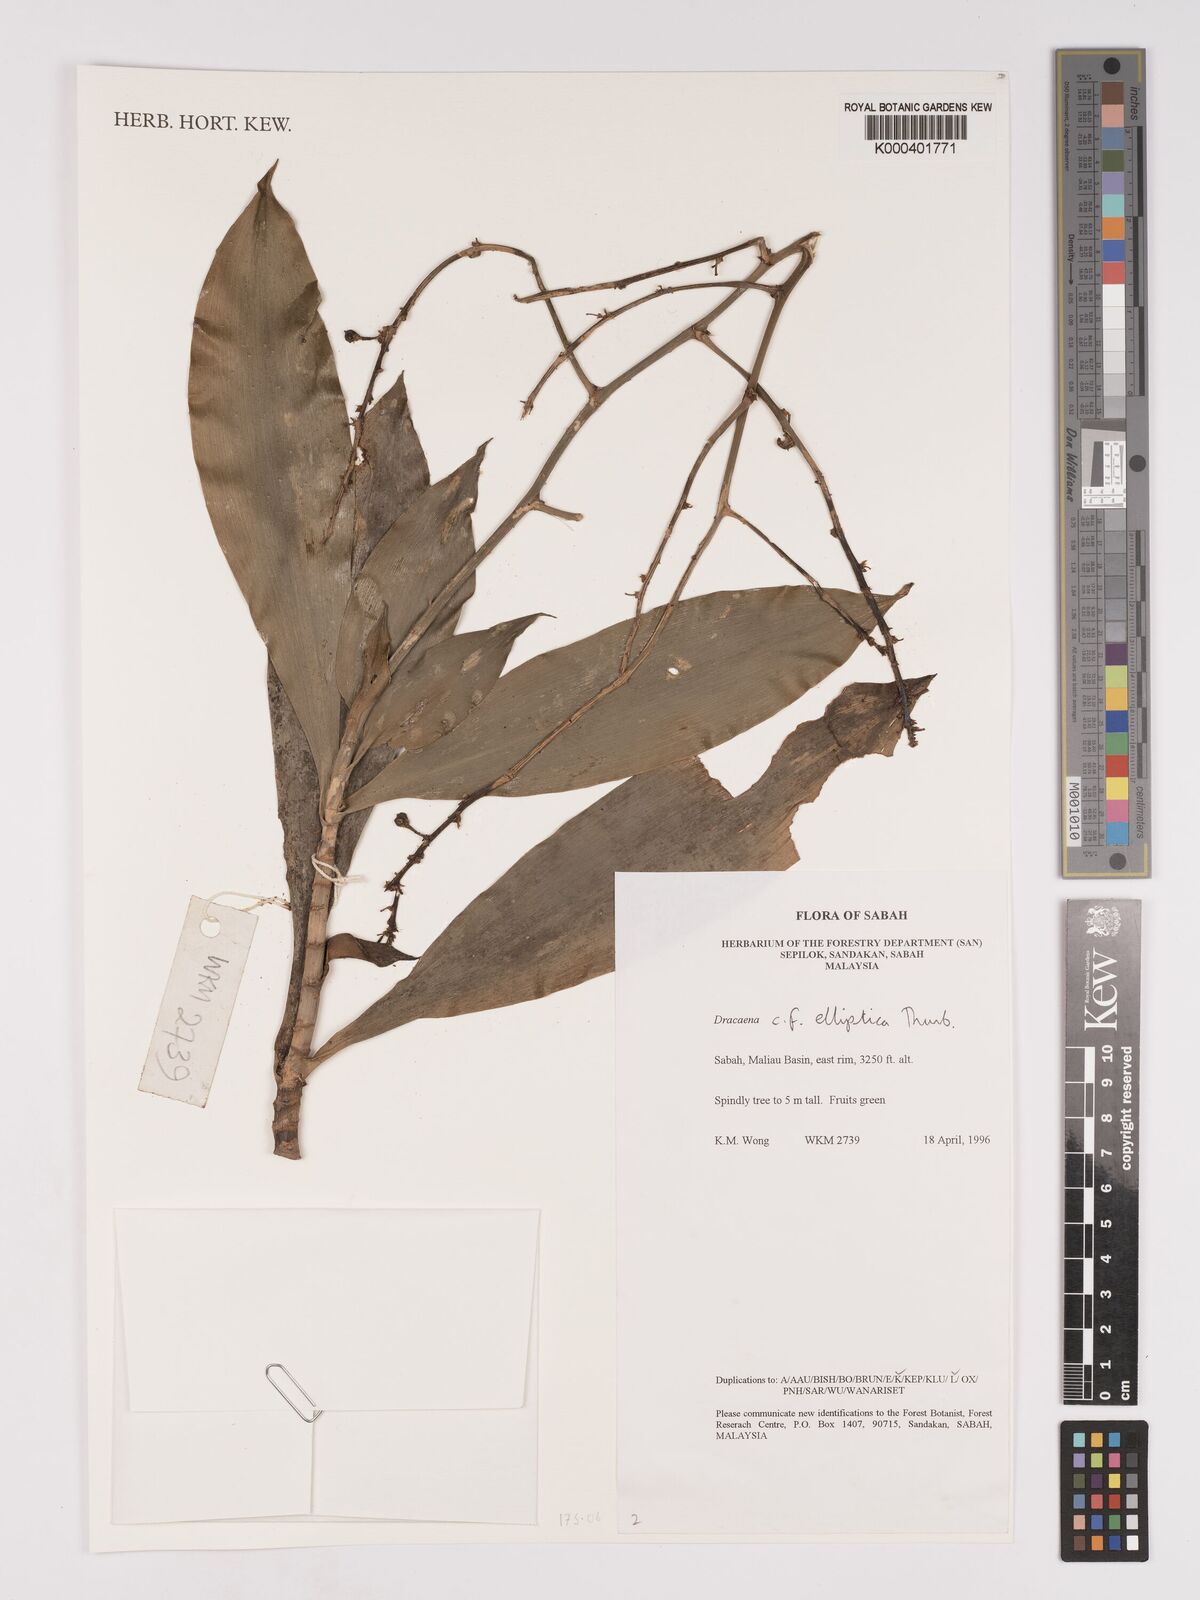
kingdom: Plantae
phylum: Tracheophyta
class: Liliopsida
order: Asparagales
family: Asparagaceae
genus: Dracaena
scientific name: Dracaena elliptica
